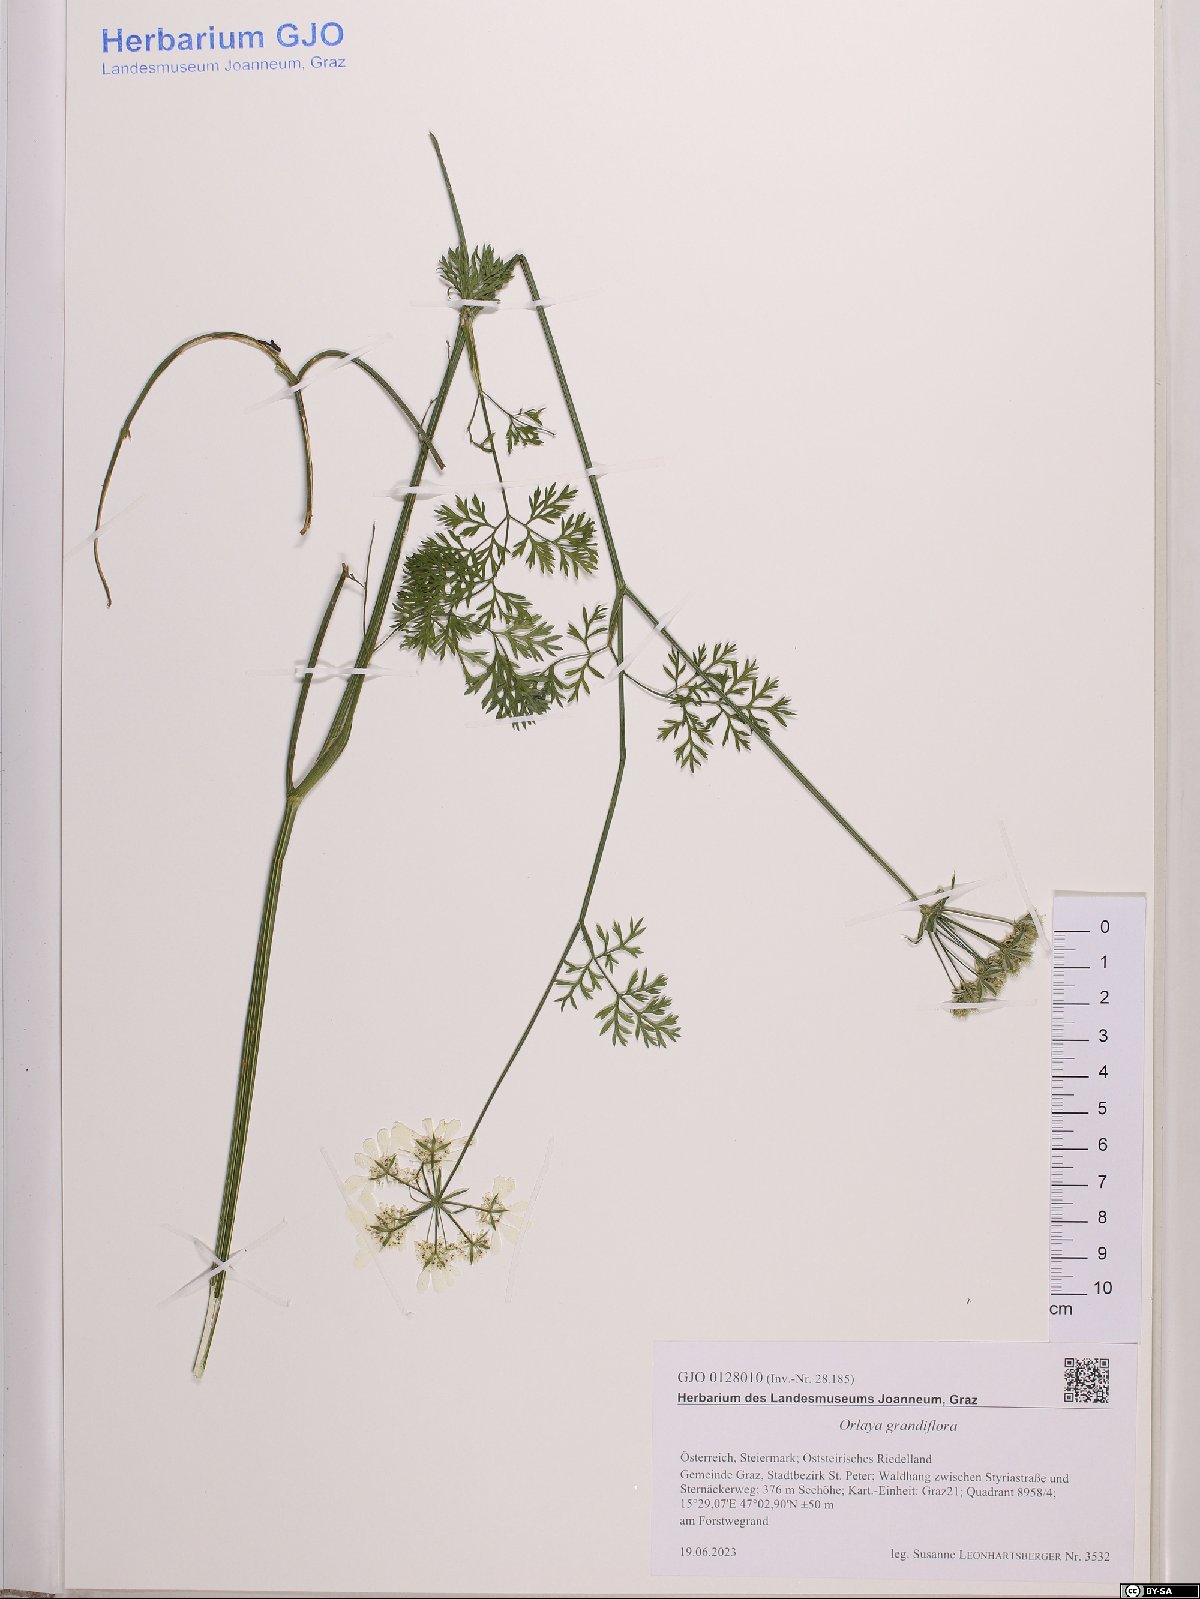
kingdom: Plantae
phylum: Tracheophyta
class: Magnoliopsida
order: Apiales
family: Apiaceae
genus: Orlaya
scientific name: Orlaya grandiflora
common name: White lace flower
